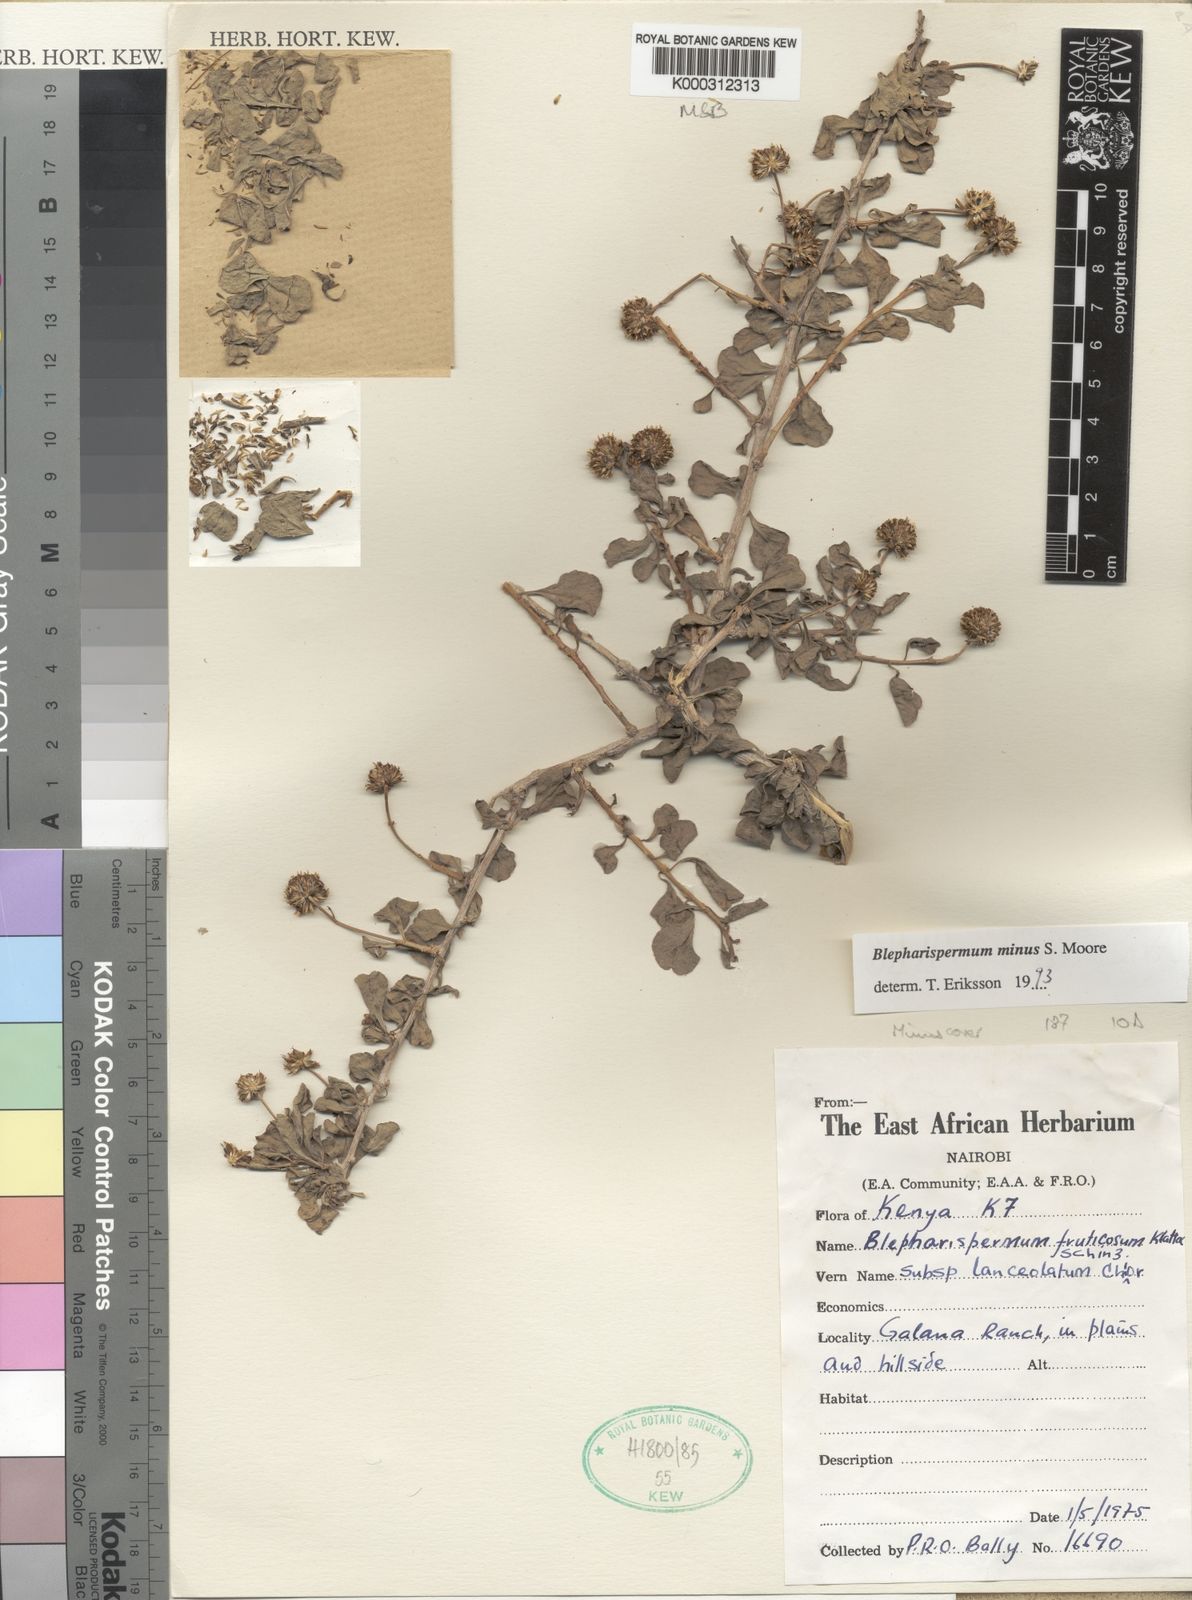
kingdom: Plantae
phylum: Tracheophyta
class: Magnoliopsida
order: Asterales
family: Asteraceae
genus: Blepharispermum
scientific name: Blepharispermum minus
